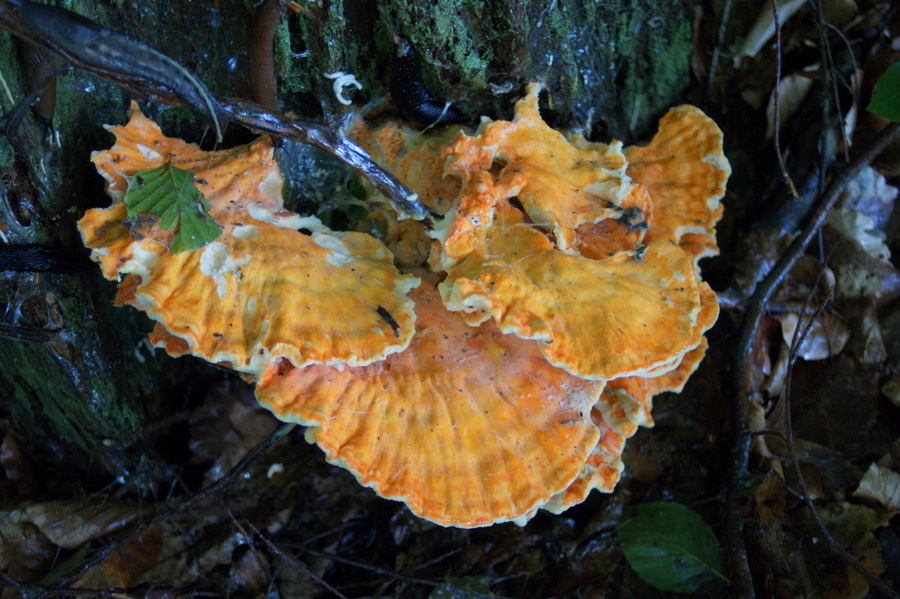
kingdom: Fungi
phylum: Basidiomycota
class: Agaricomycetes
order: Polyporales
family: Laetiporaceae
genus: Laetiporus
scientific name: Laetiporus sulphureus
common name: svovlporesvamp
